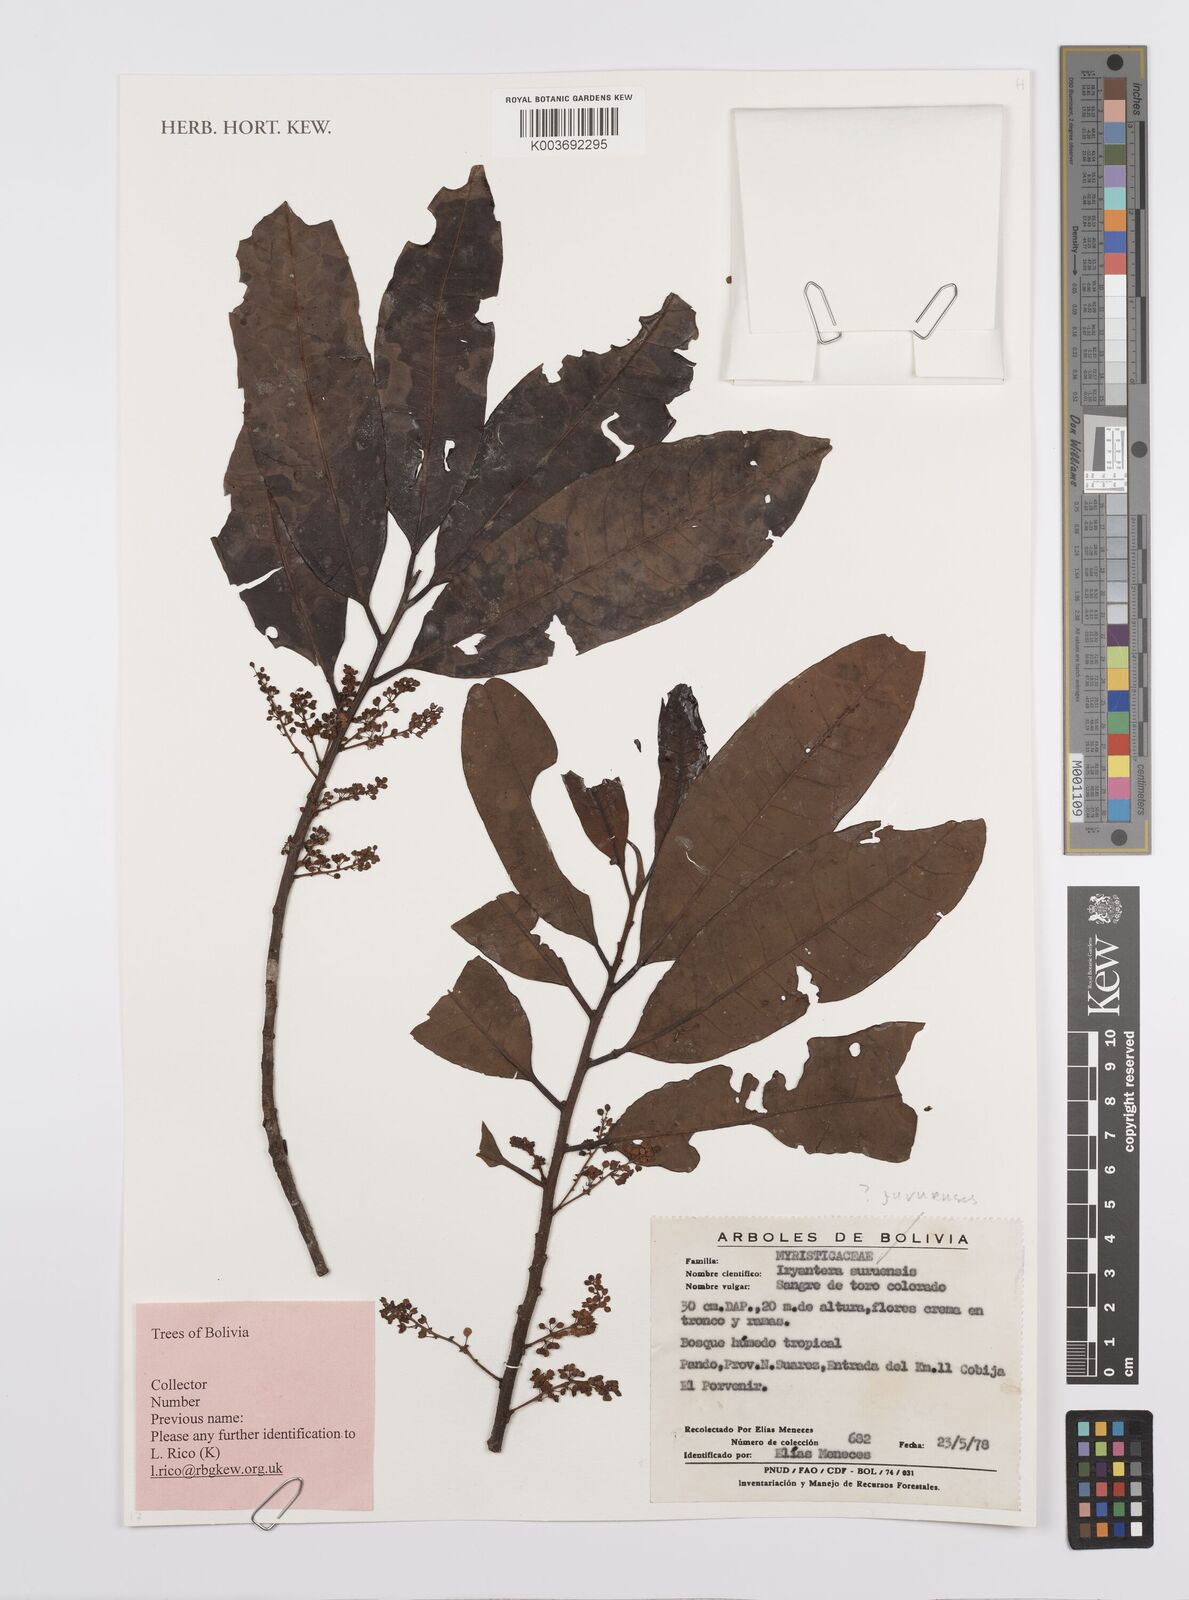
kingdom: Plantae
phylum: Tracheophyta
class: Magnoliopsida
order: Magnoliales
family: Myristicaceae
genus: Iryanthera
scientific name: Iryanthera juruensis
